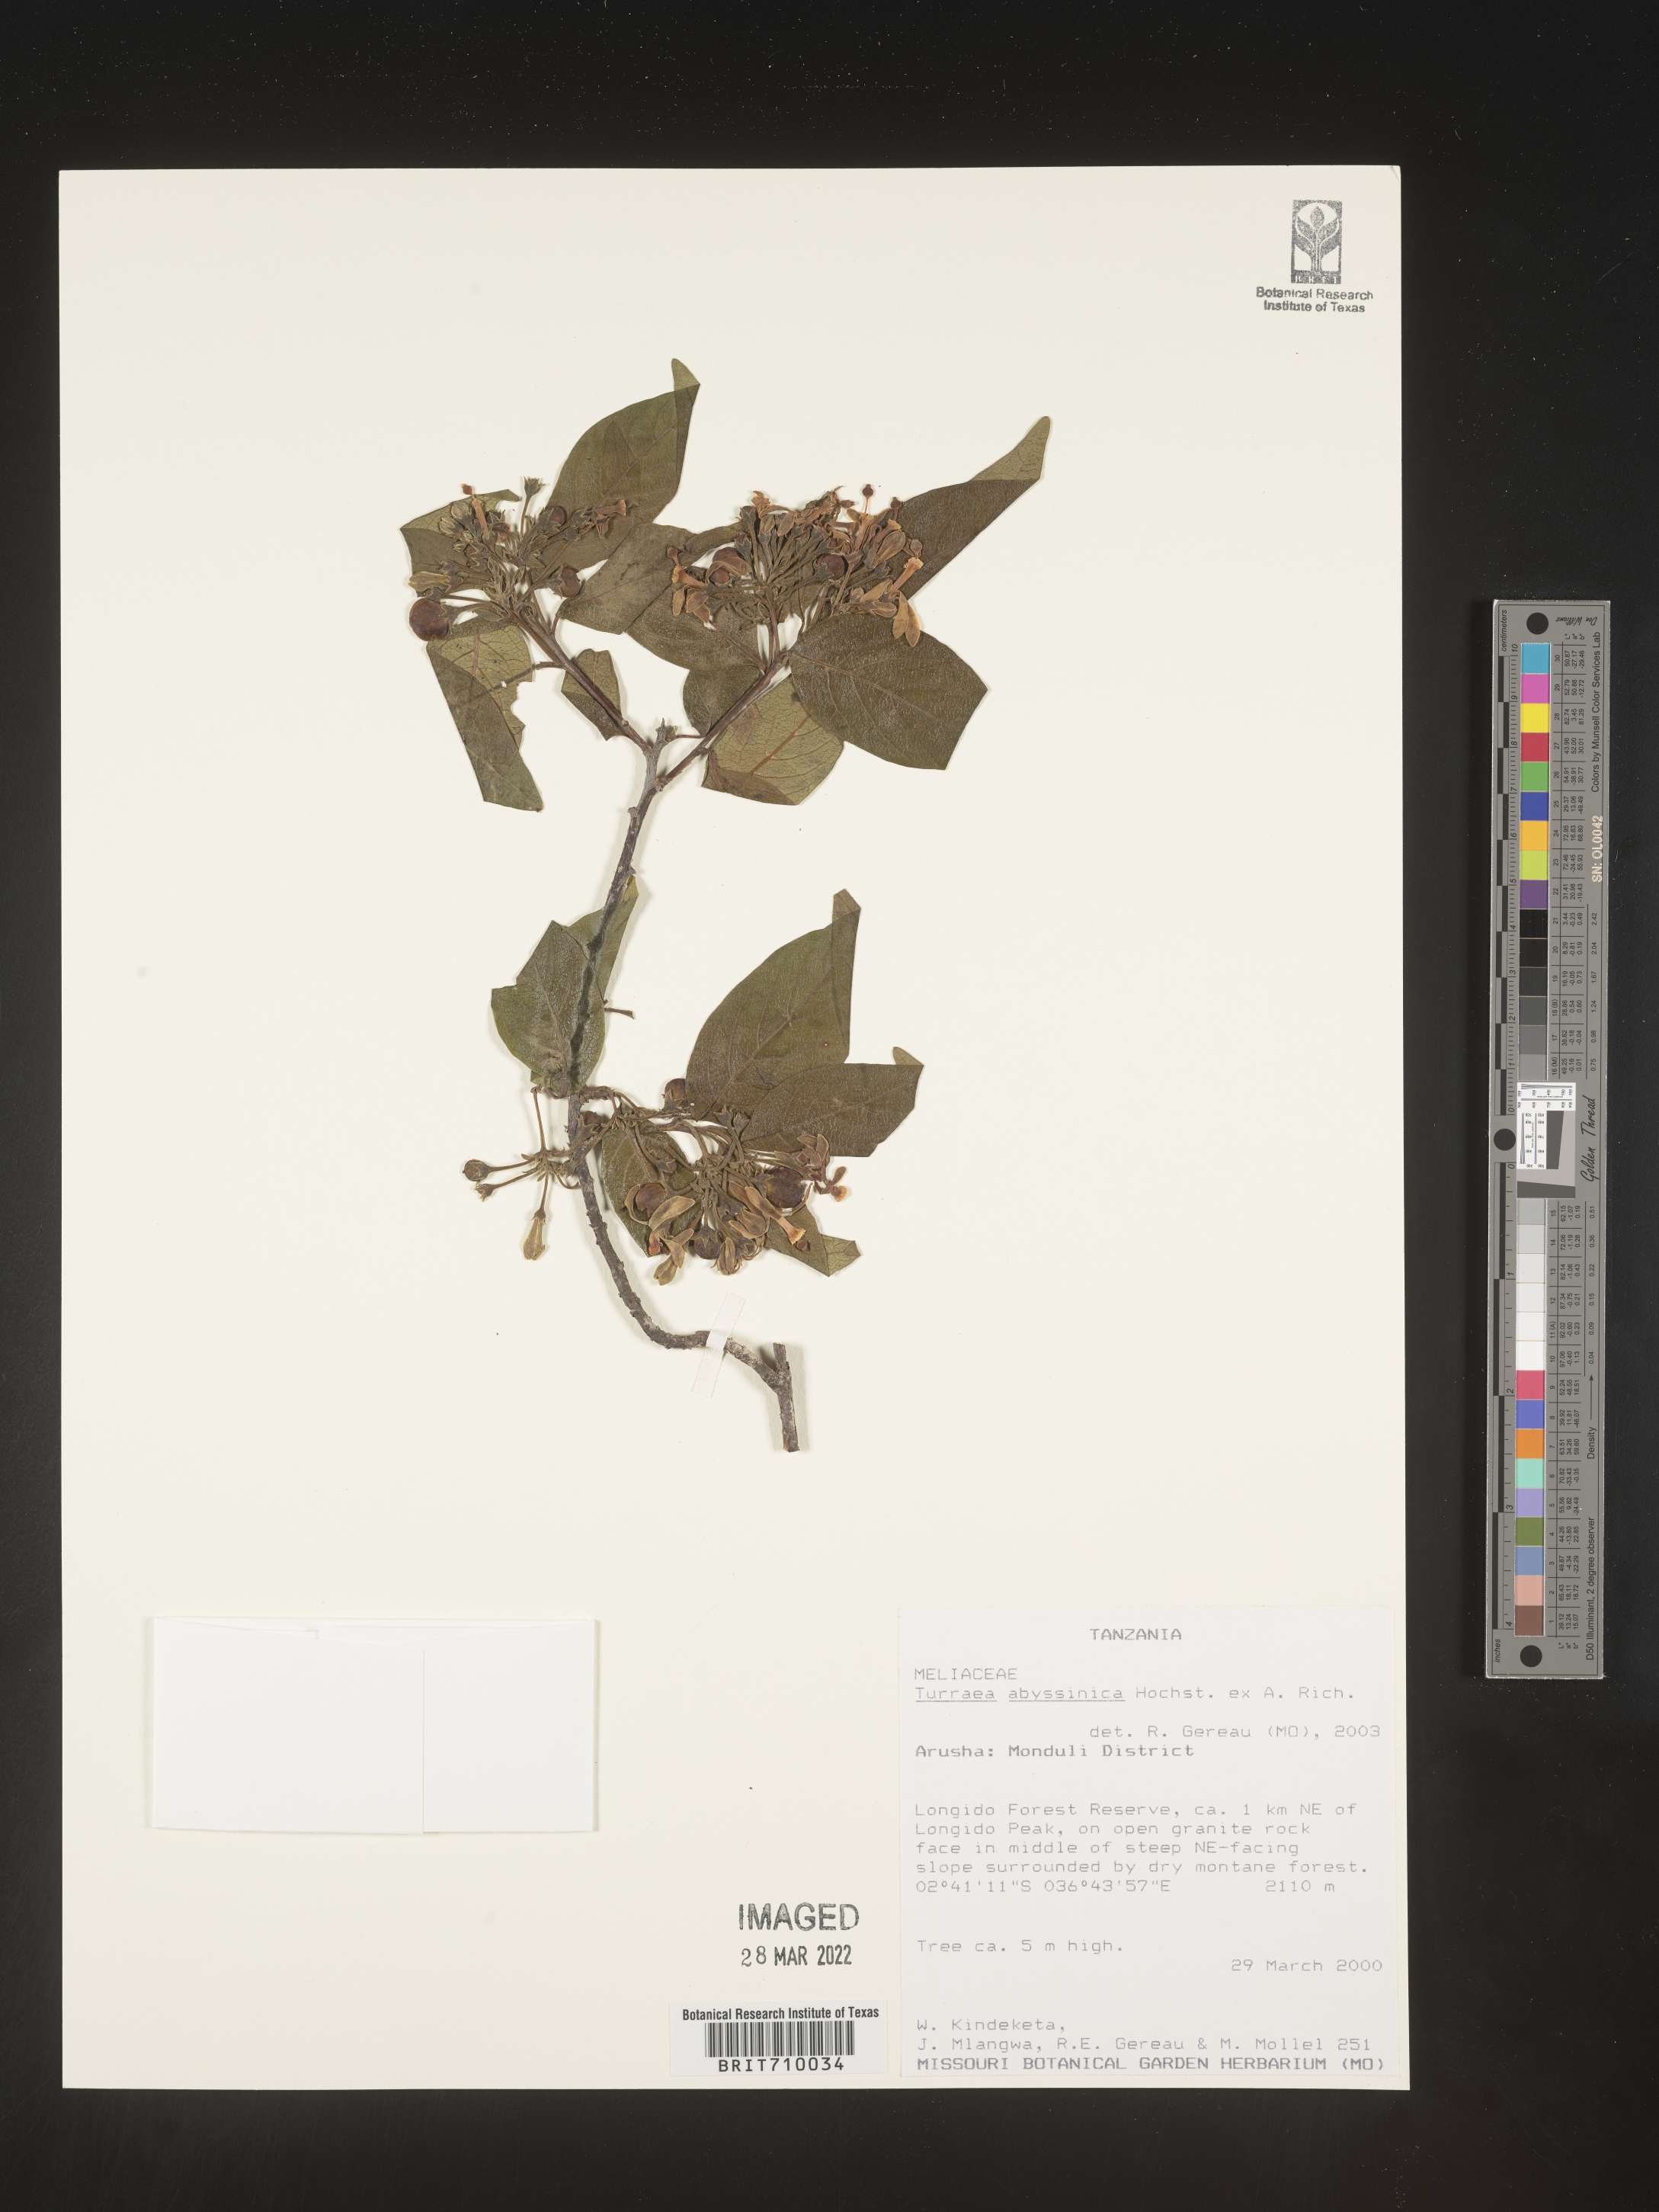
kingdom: Plantae
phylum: Tracheophyta
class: Magnoliopsida
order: Sapindales
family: Meliaceae
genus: Turraea
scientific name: Turraea
